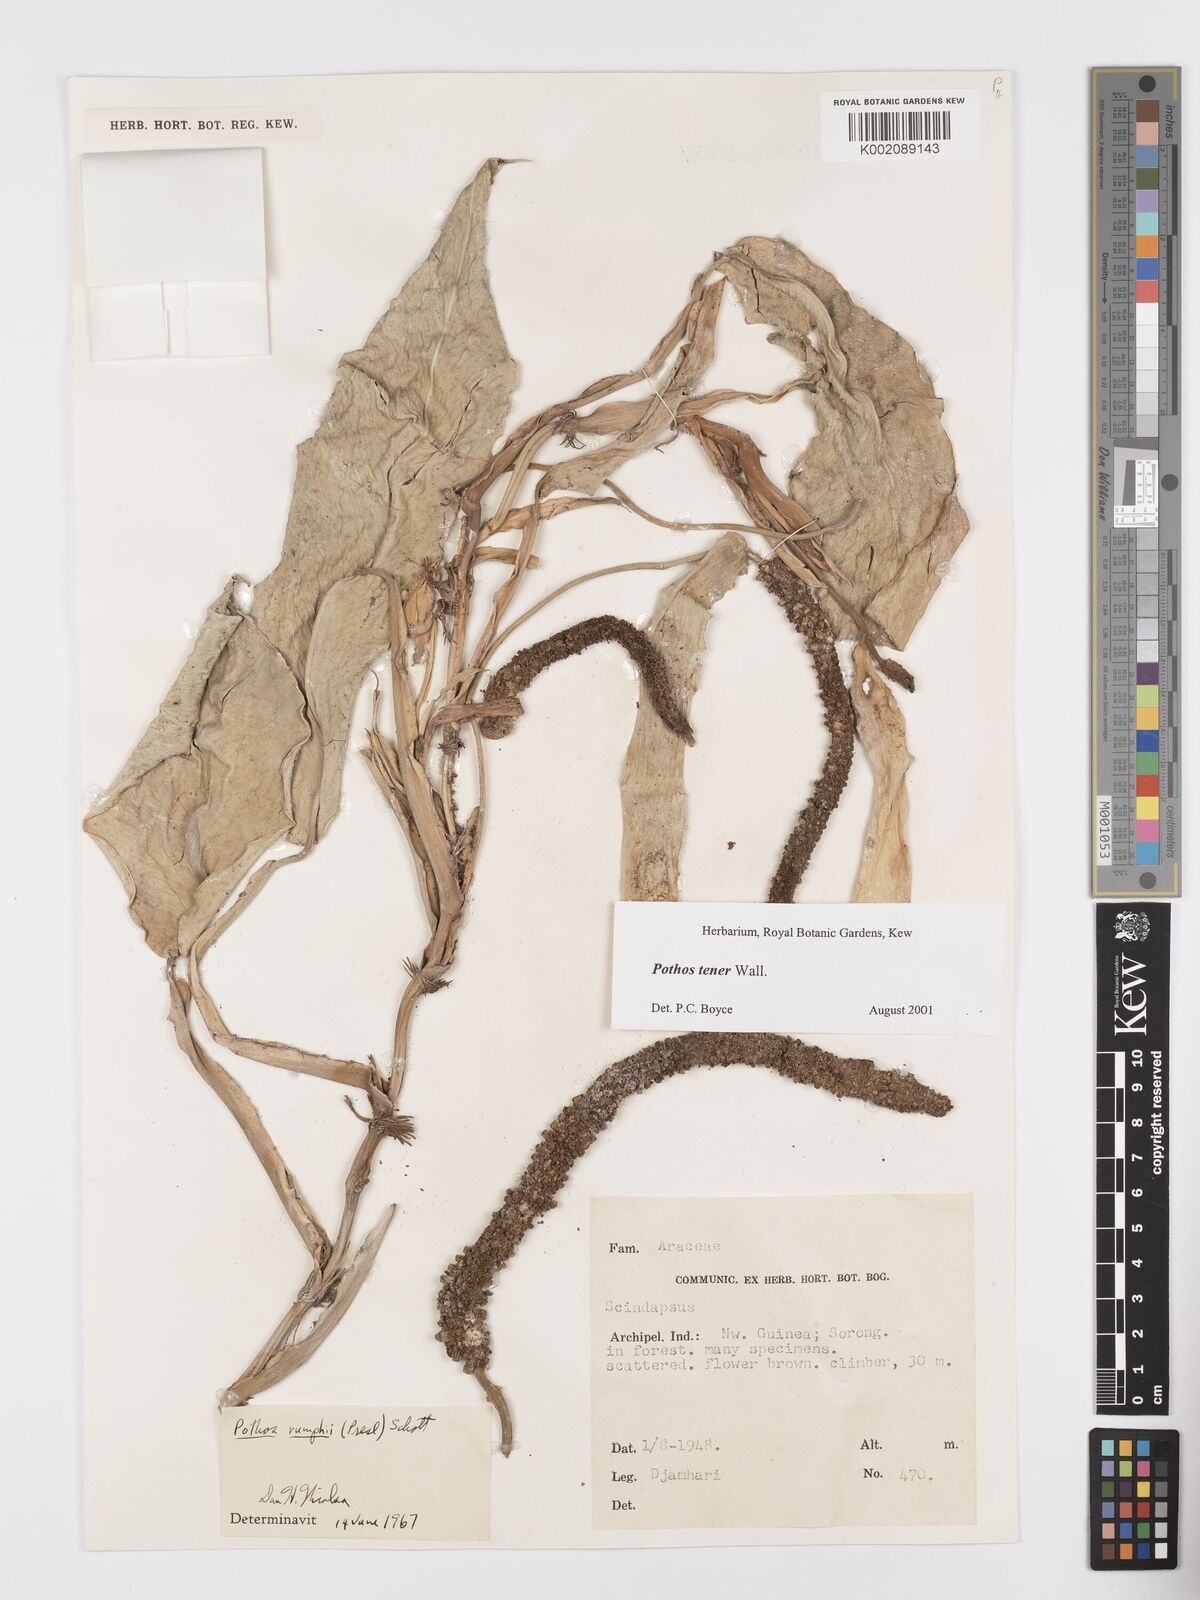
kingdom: Plantae
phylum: Tracheophyta
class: Liliopsida
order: Alismatales
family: Araceae
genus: Pothos
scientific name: Pothos tener
